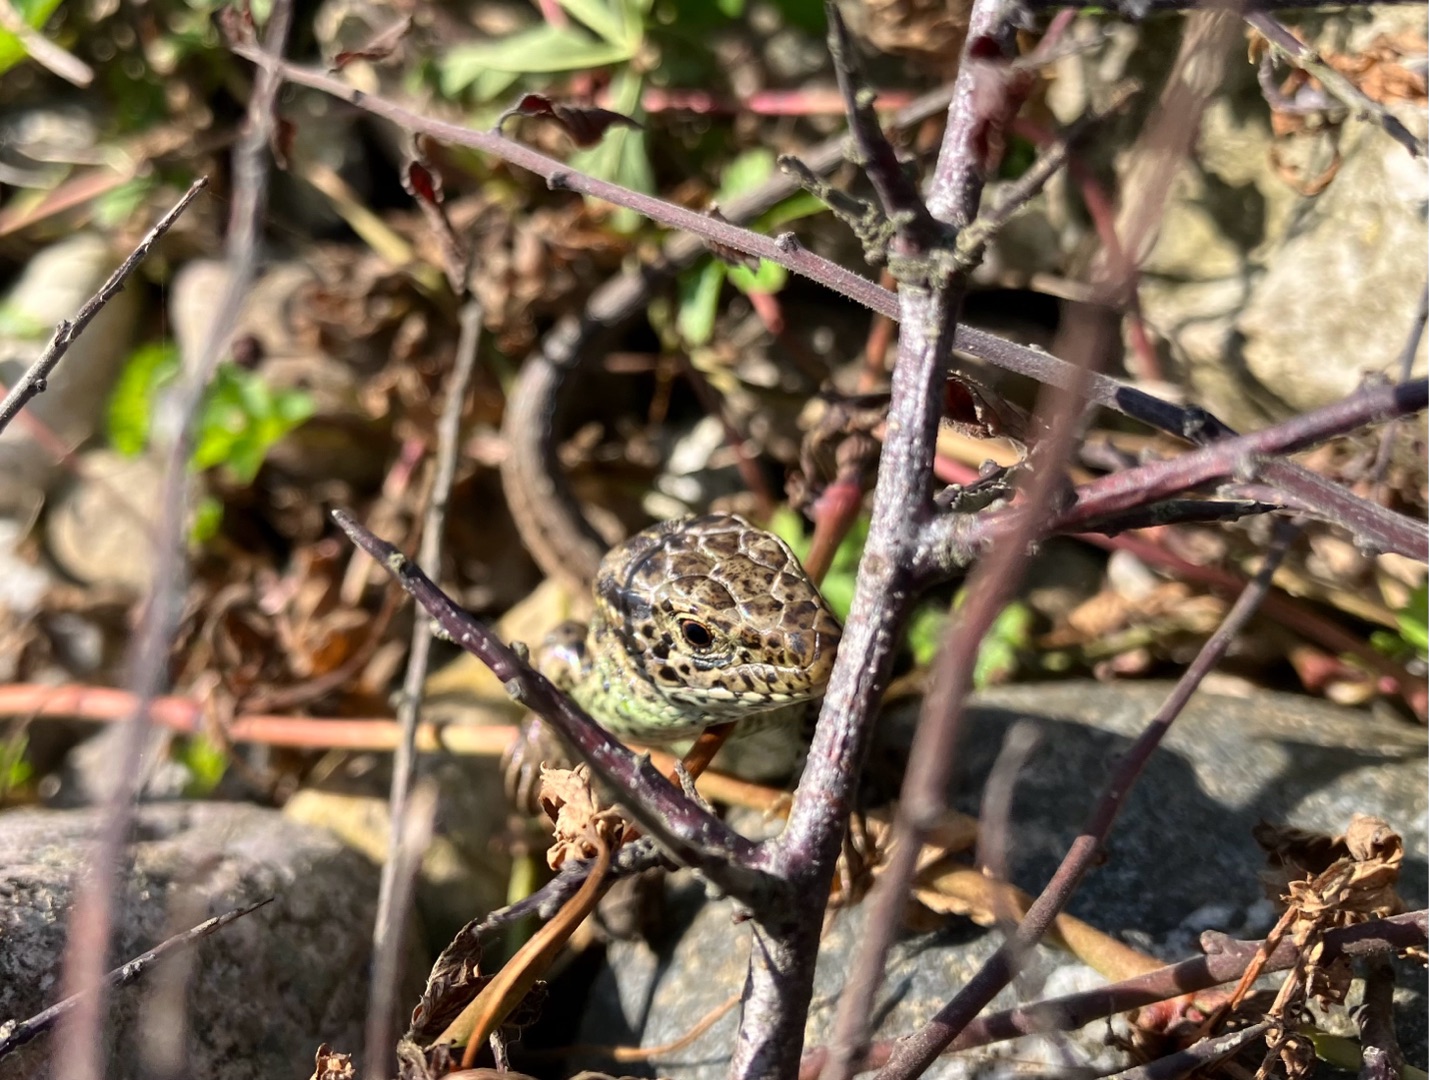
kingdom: Animalia
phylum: Chordata
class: Squamata
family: Lacertidae
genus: Lacerta
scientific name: Lacerta agilis
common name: Markfirben
